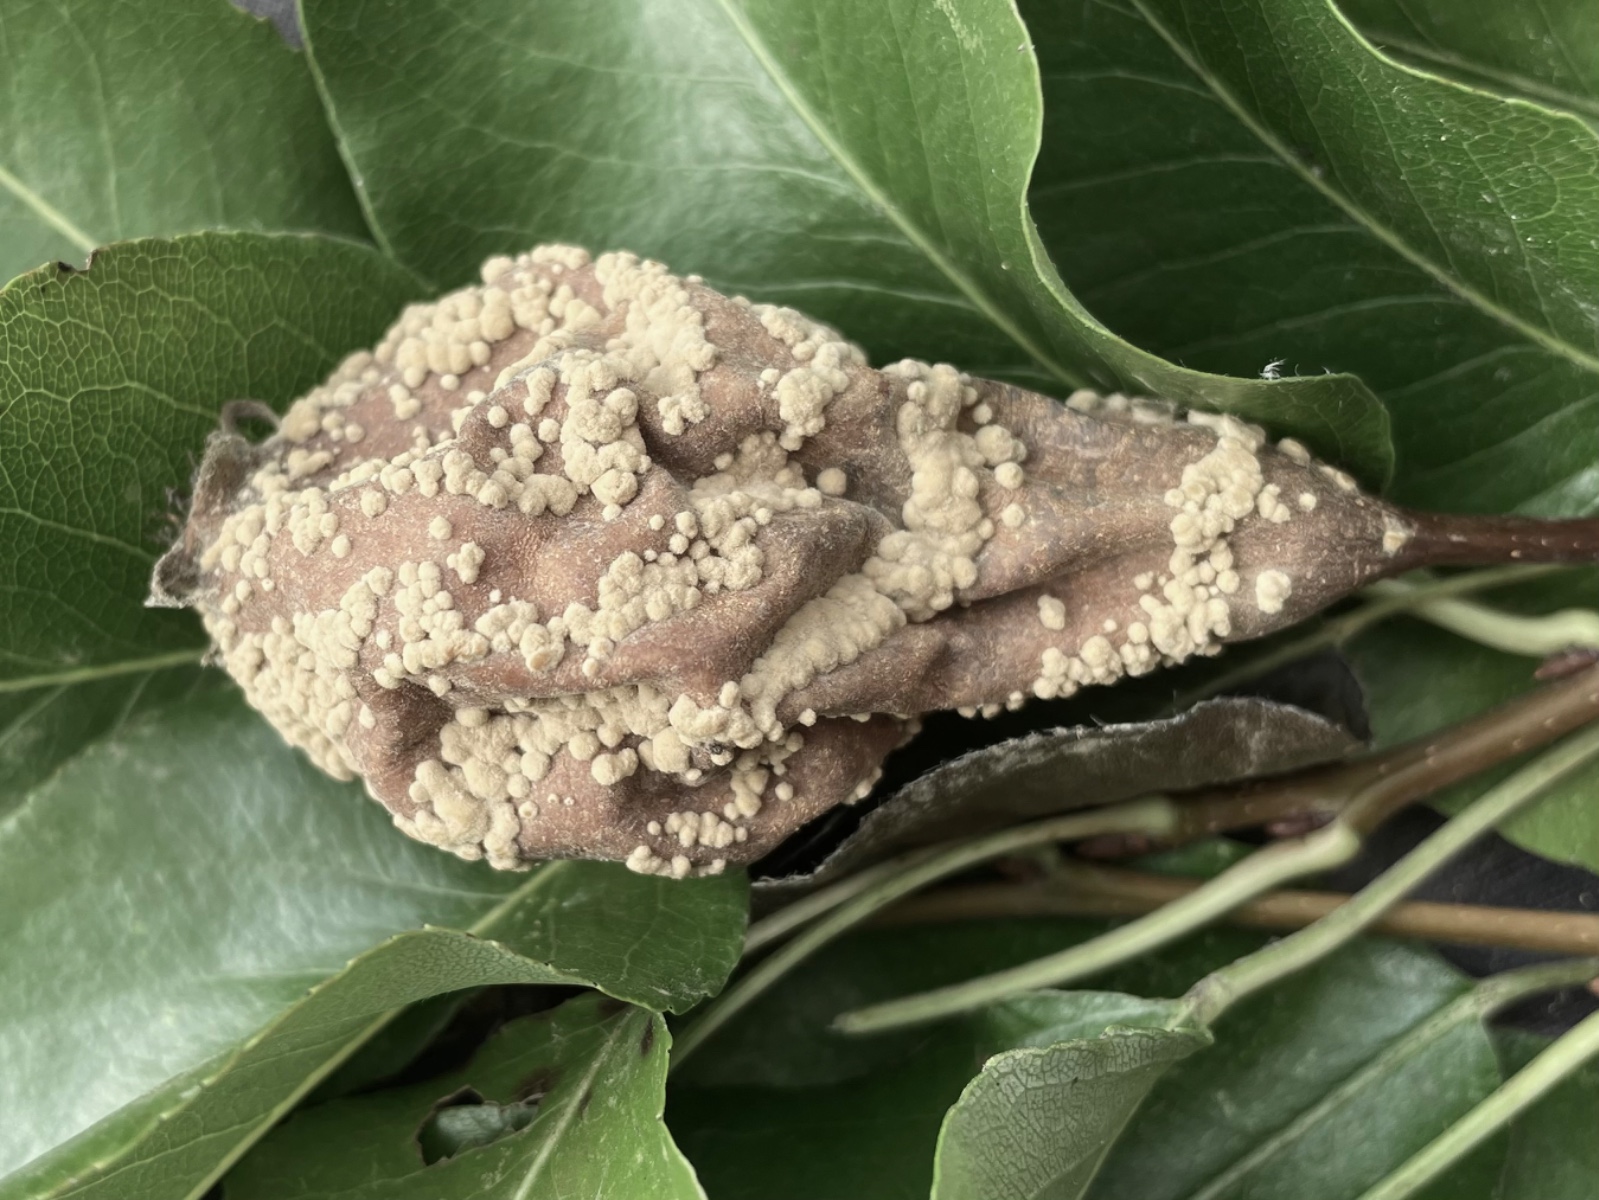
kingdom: Fungi
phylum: Ascomycota
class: Leotiomycetes
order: Helotiales
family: Sclerotiniaceae
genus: Monilinia
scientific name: Monilinia fructigena
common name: æble-knoldskive
